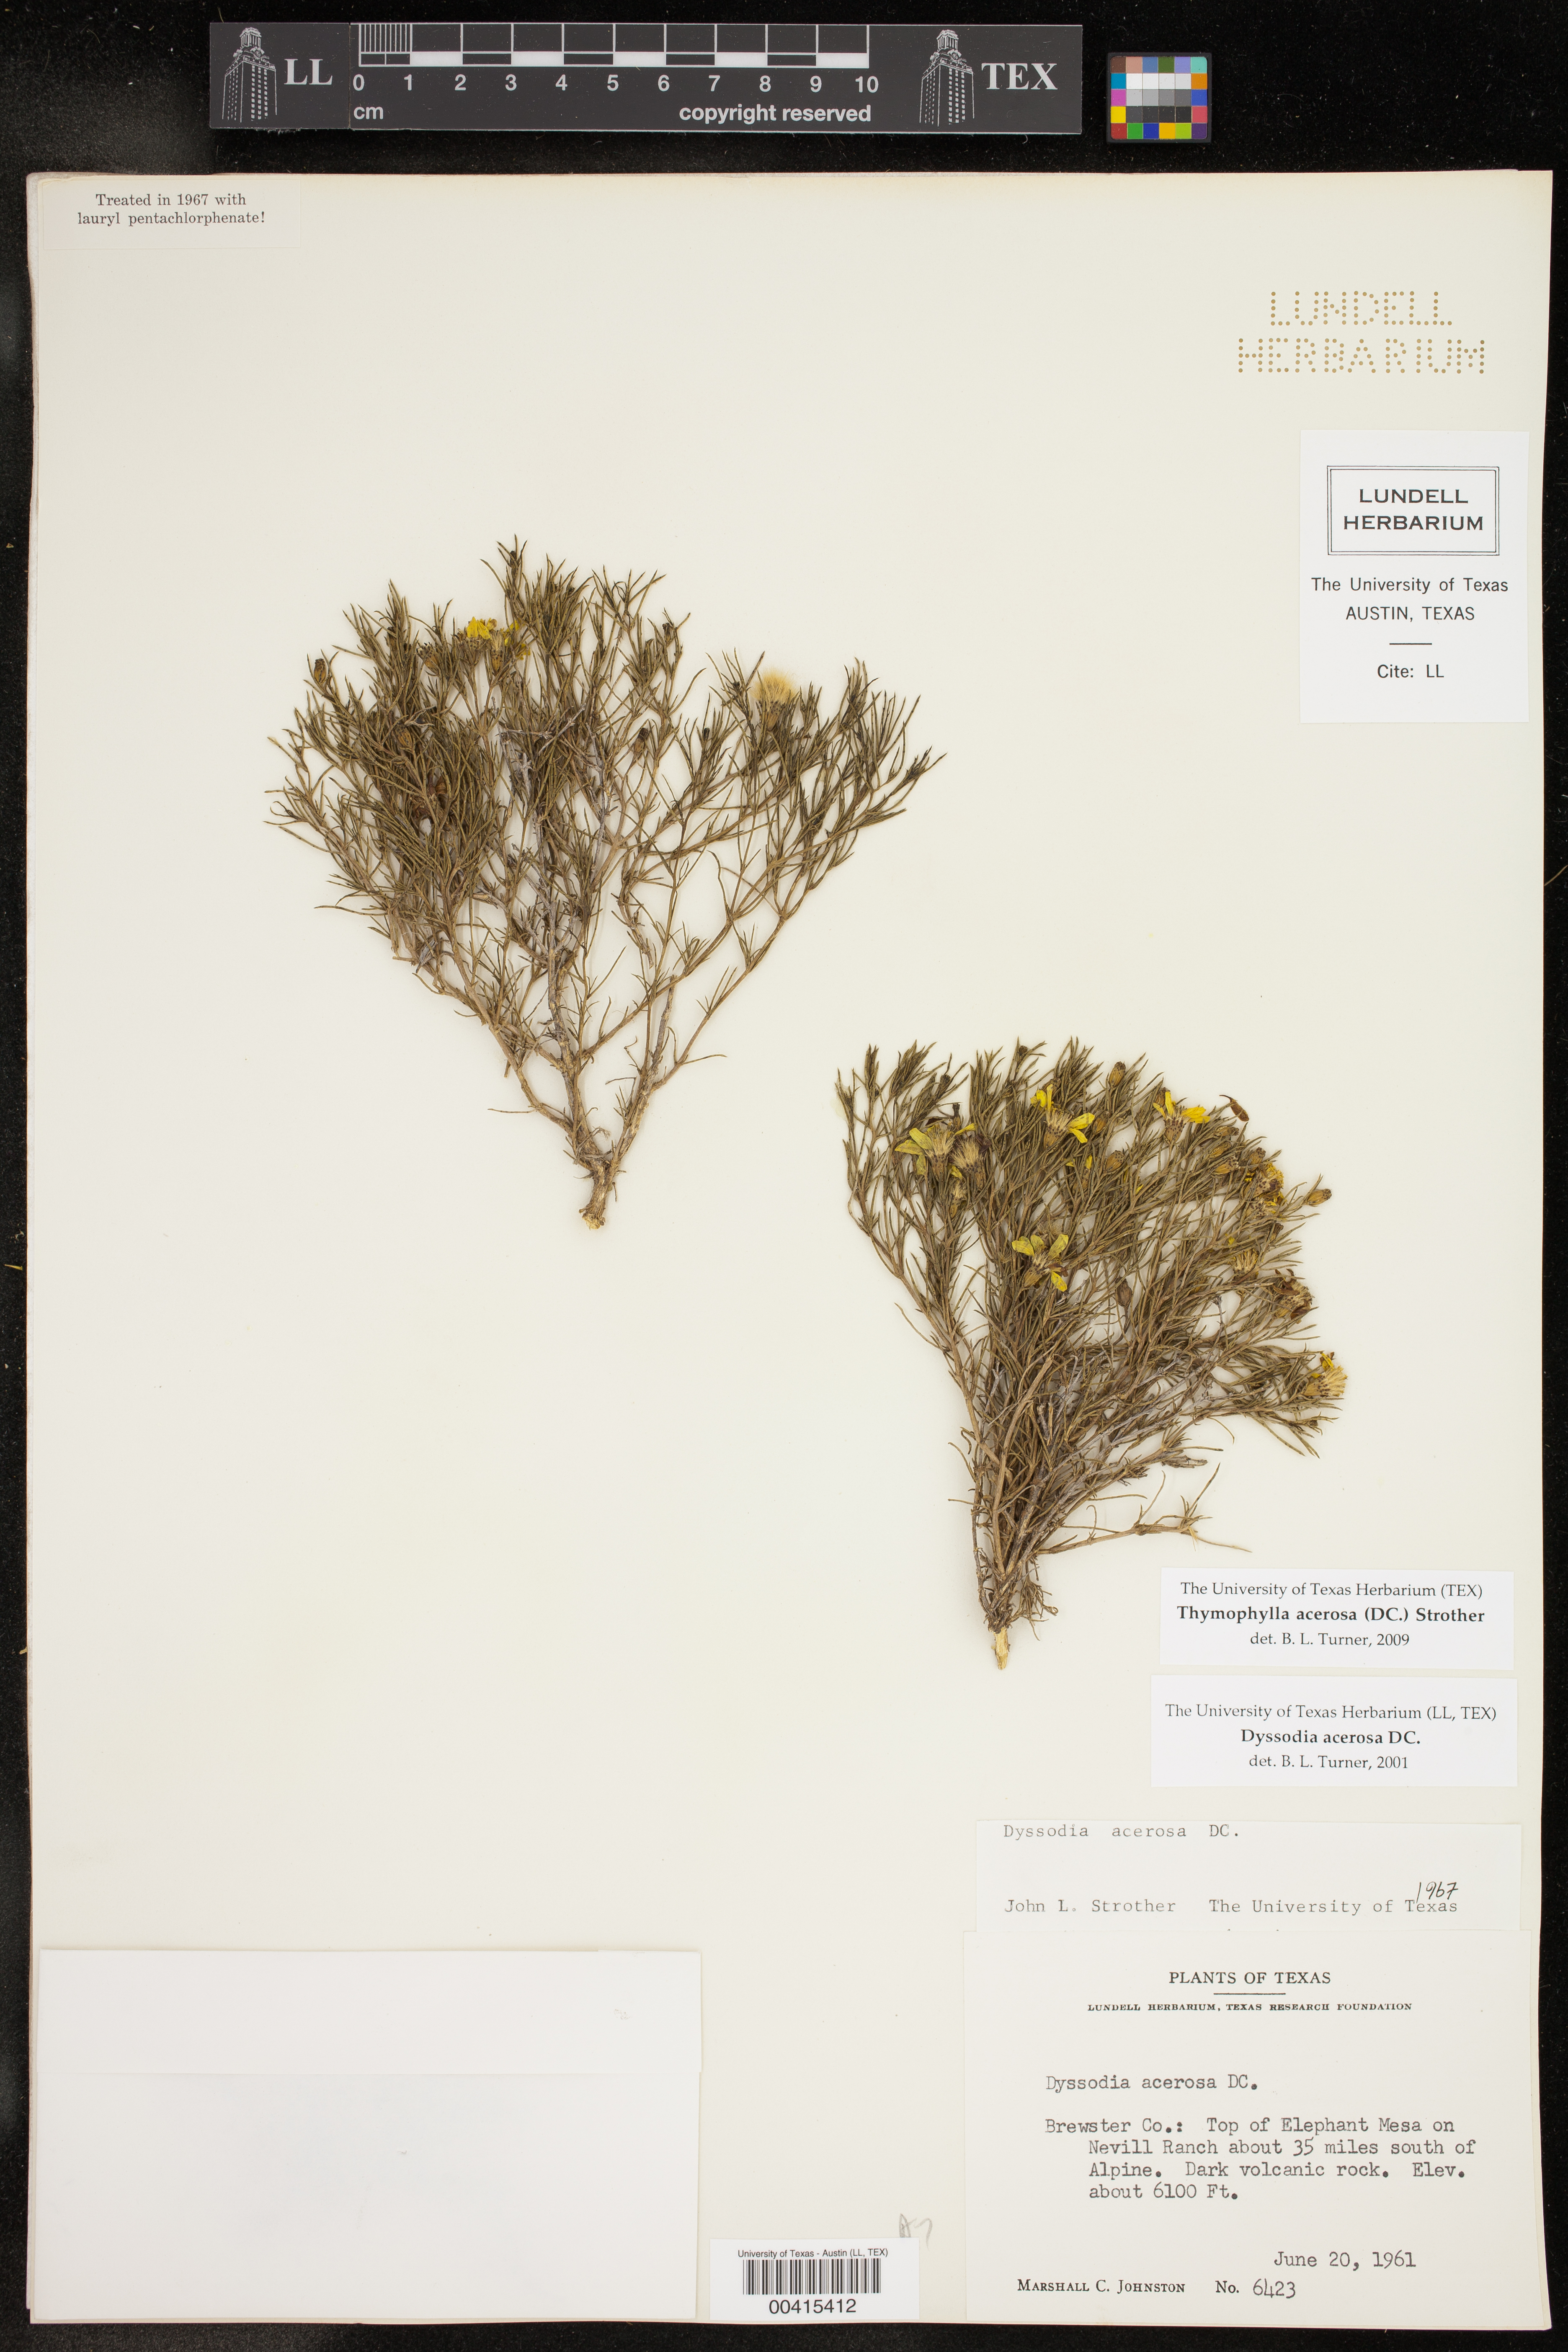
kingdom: Plantae
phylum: Tracheophyta
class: Magnoliopsida
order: Asterales
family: Asteraceae
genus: Thymophylla
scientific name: Thymophylla acerosa
